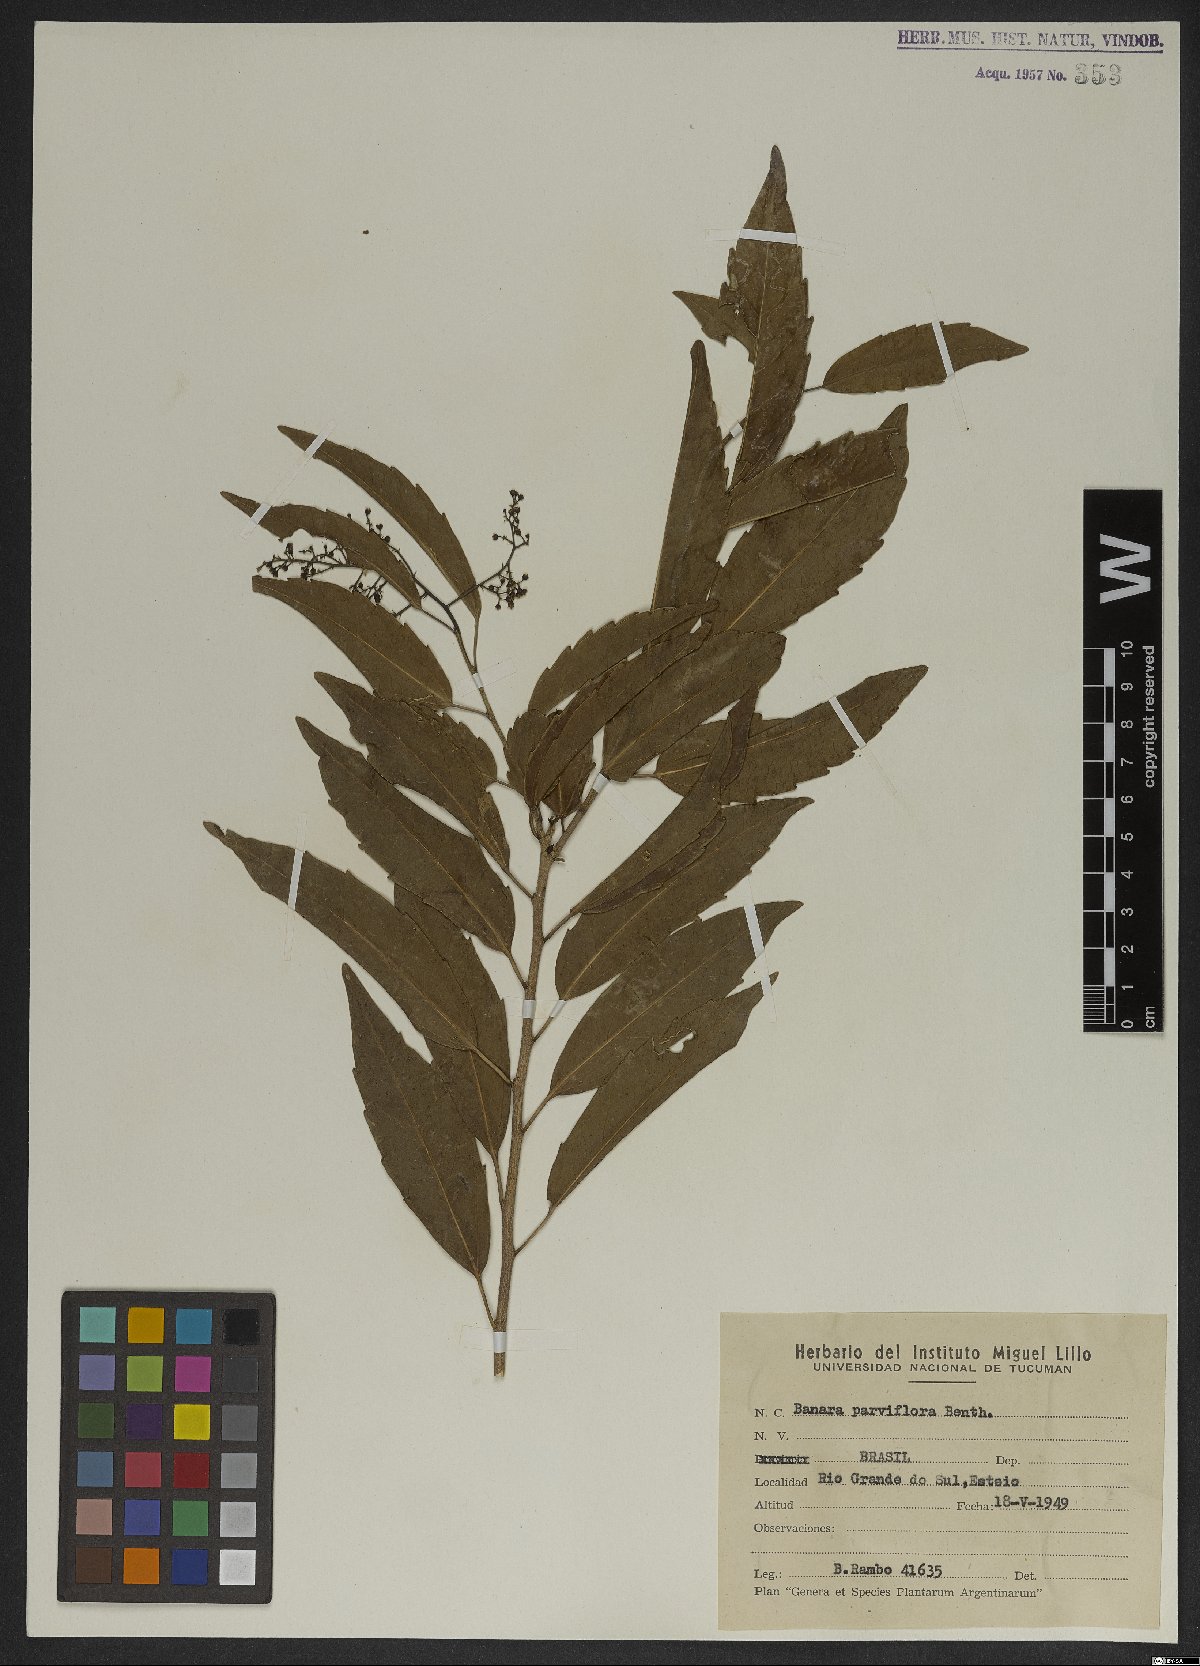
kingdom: Plantae
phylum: Tracheophyta
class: Magnoliopsida
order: Malpighiales
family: Salicaceae
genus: Banara
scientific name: Banara parviflora
